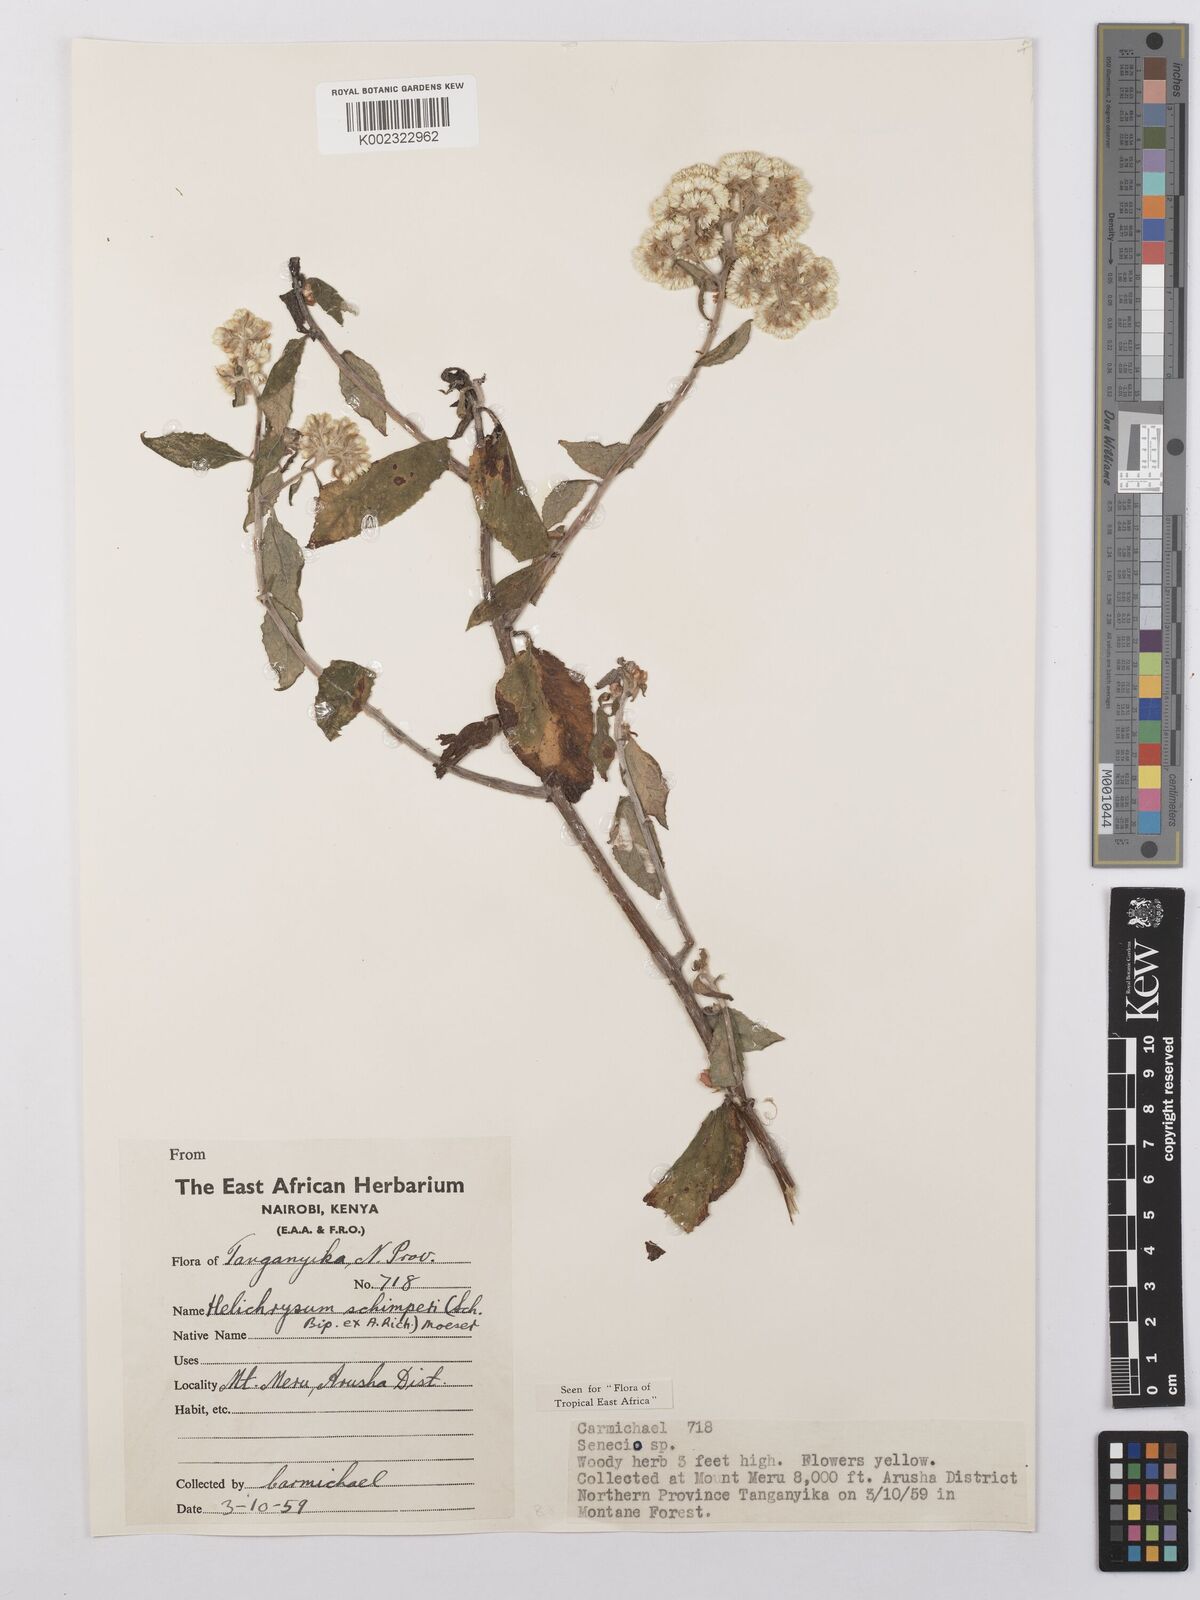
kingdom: Plantae
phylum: Tracheophyta
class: Magnoliopsida
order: Asterales
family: Asteraceae
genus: Helichrysum
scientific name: Helichrysum schimperi
